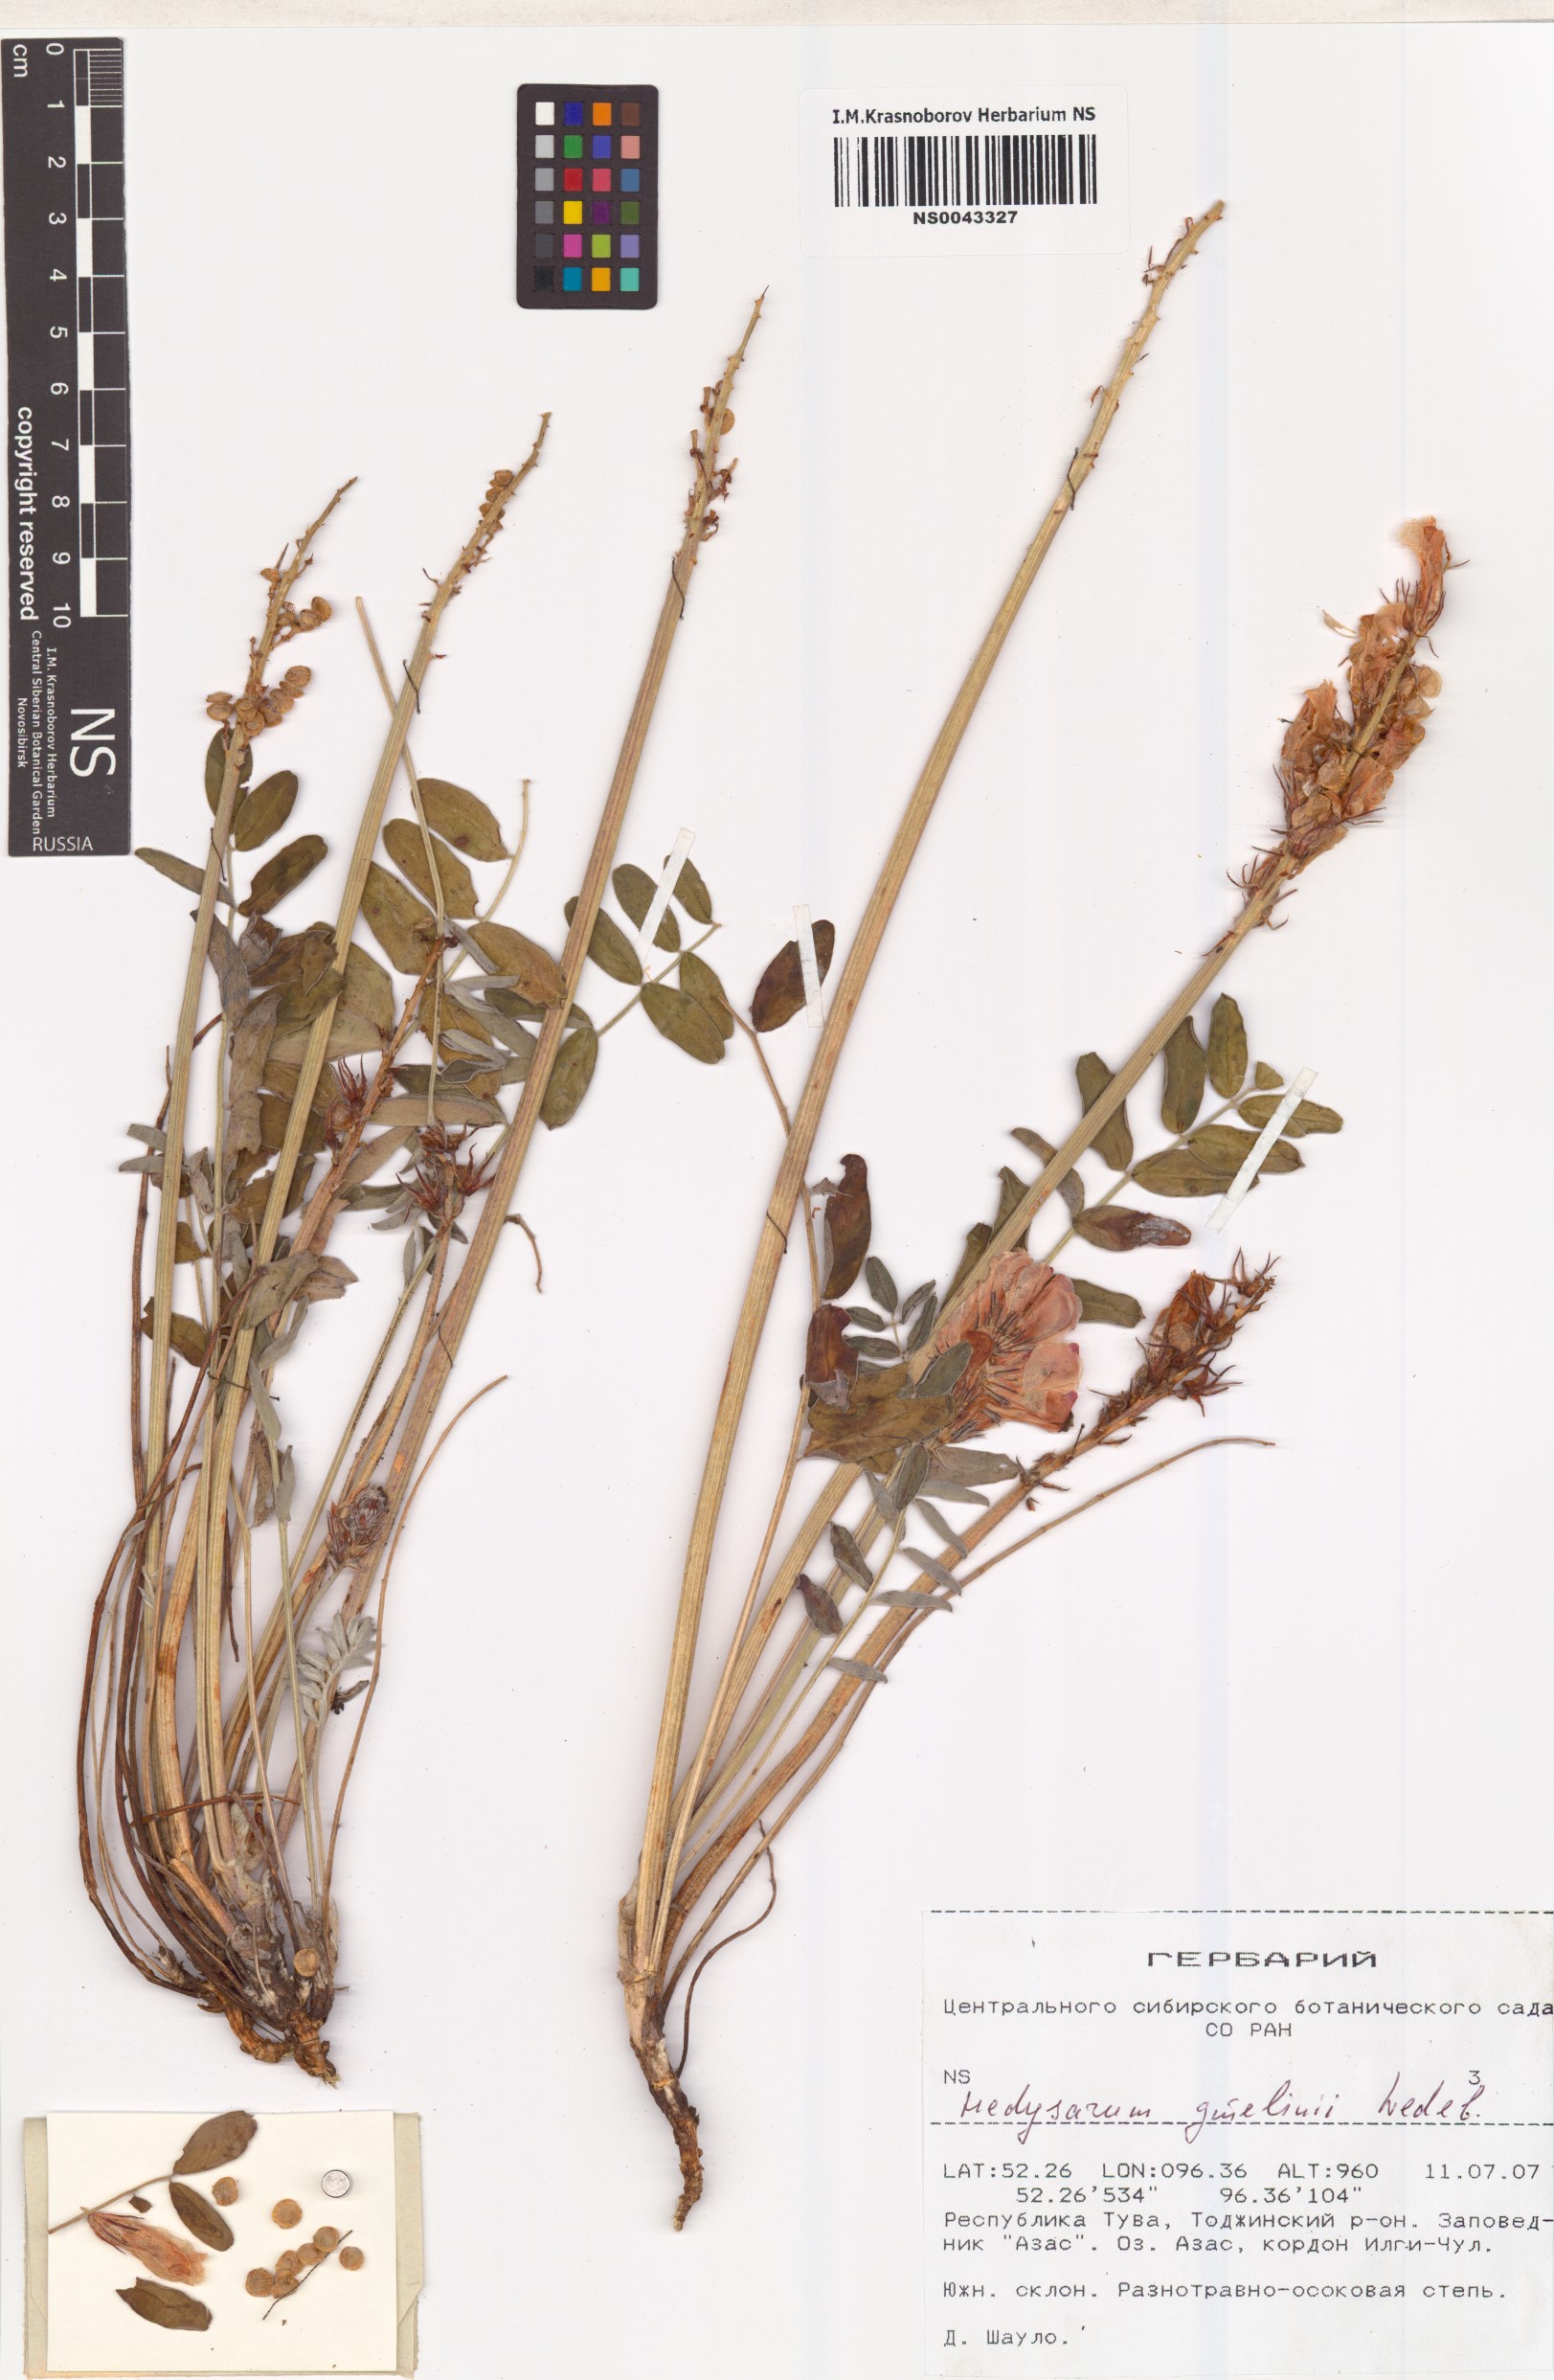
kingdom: Plantae
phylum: Tracheophyta
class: Magnoliopsida
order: Fabales
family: Fabaceae
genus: Hedysarum
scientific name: Hedysarum gmelinii
